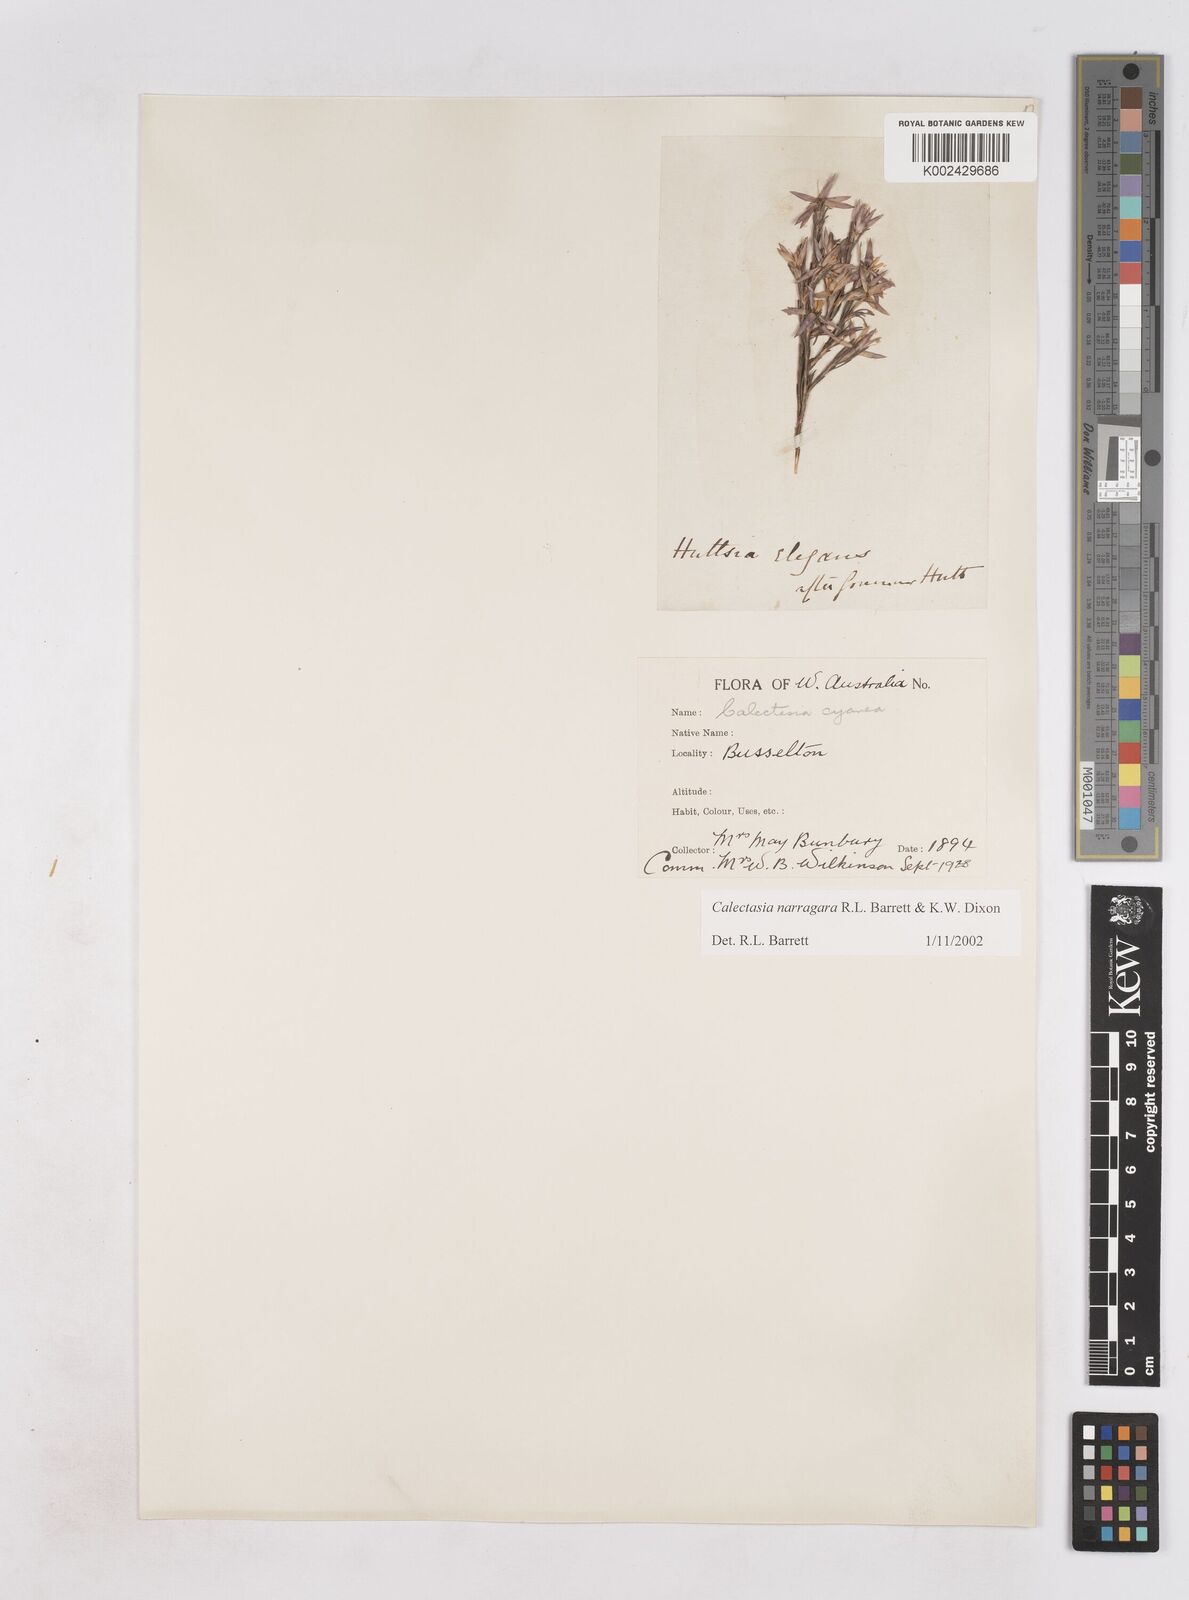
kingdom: Plantae
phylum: Tracheophyta
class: Liliopsida
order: Arecales
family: Dasypogonaceae
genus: Calectasia
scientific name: Calectasia narragara
